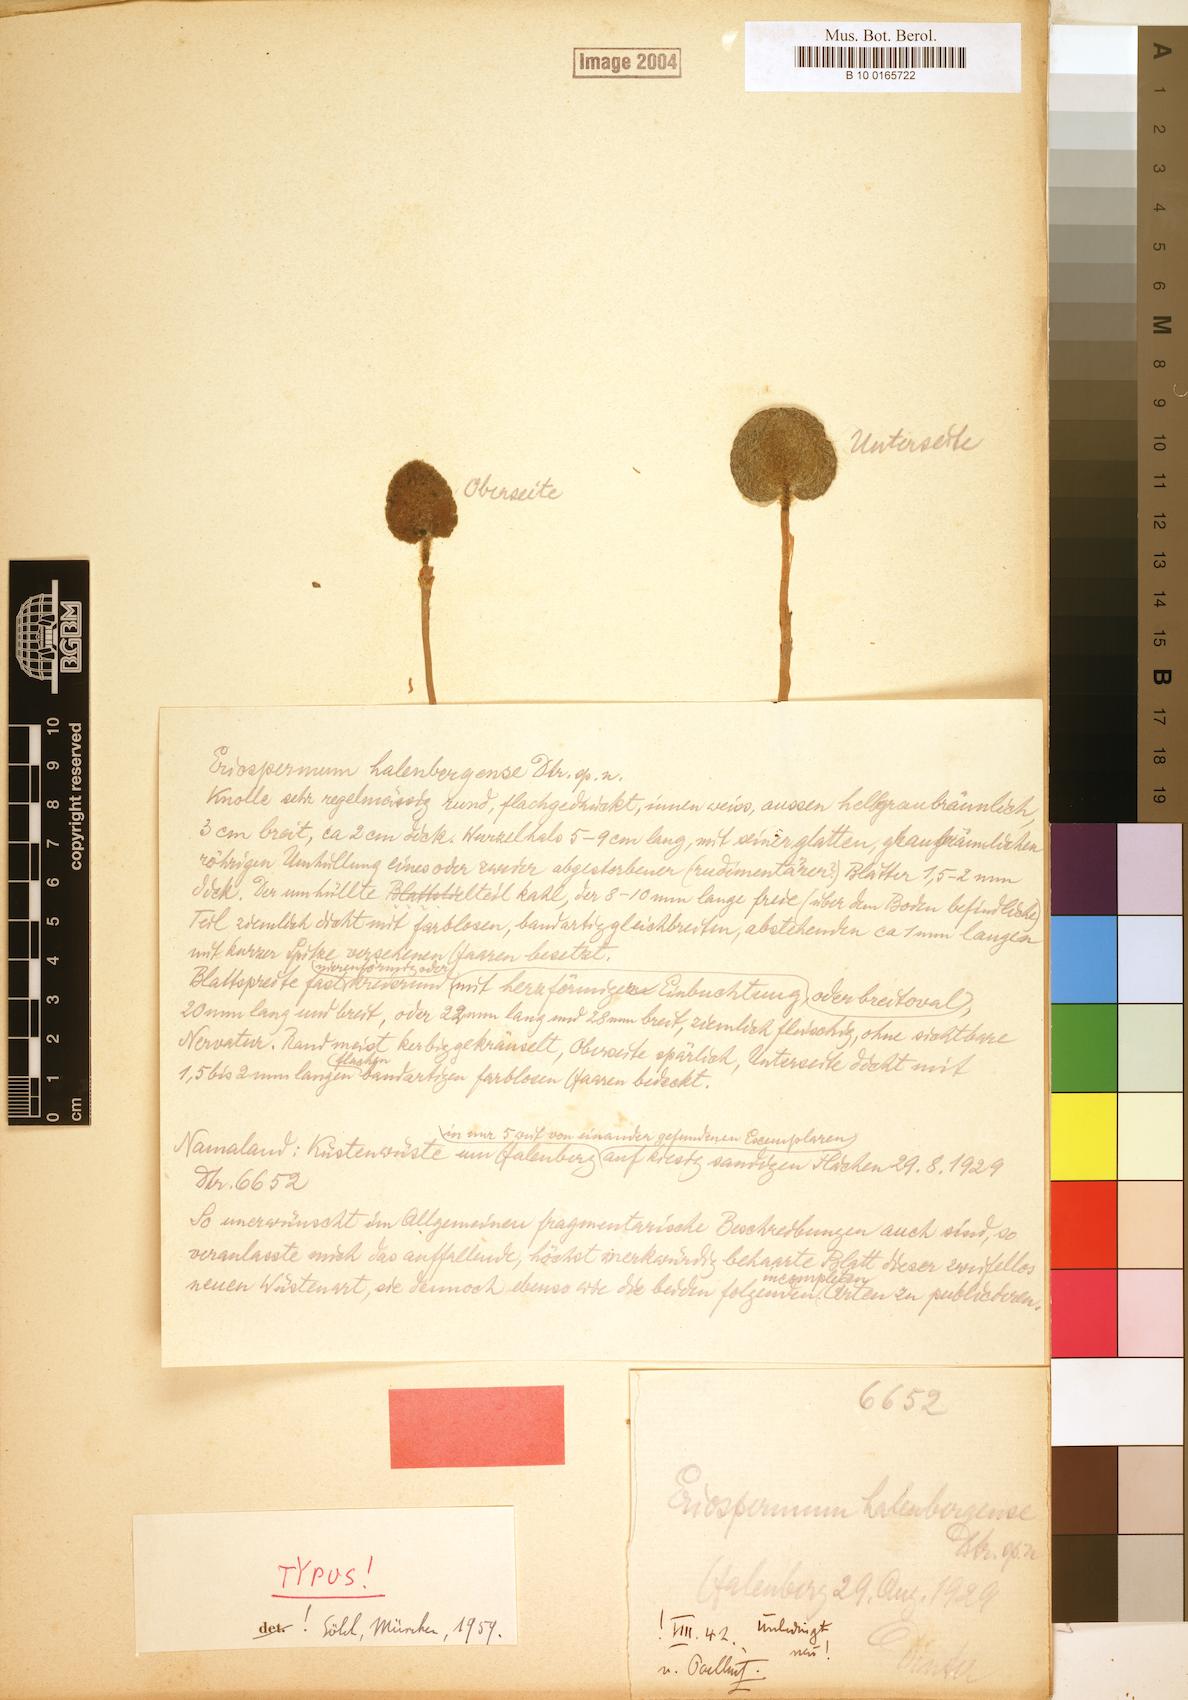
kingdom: Plantae
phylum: Tracheophyta
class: Liliopsida
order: Asparagales
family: Asparagaceae
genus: Eriospermum
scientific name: Eriospermum halenbergense
